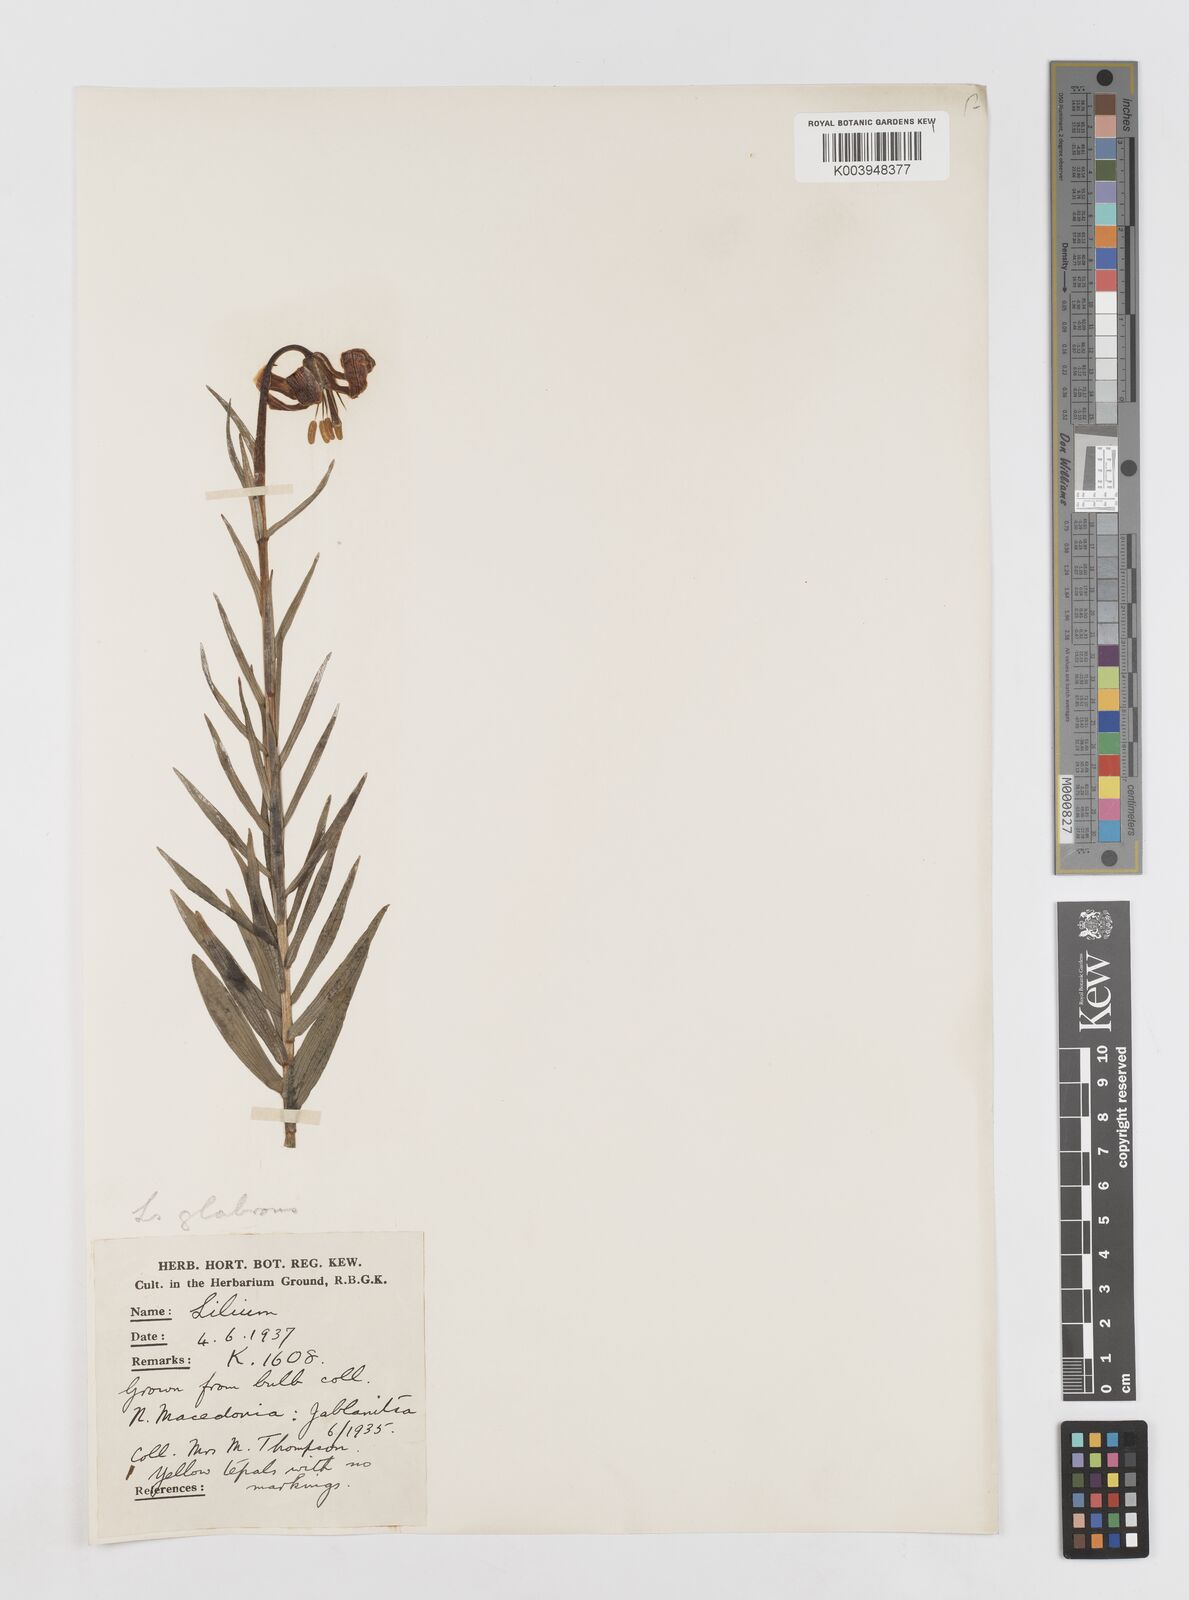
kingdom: Plantae
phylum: Tracheophyta
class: Liliopsida
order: Liliales
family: Liliaceae
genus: Lilium
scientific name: Lilium carniolicum
